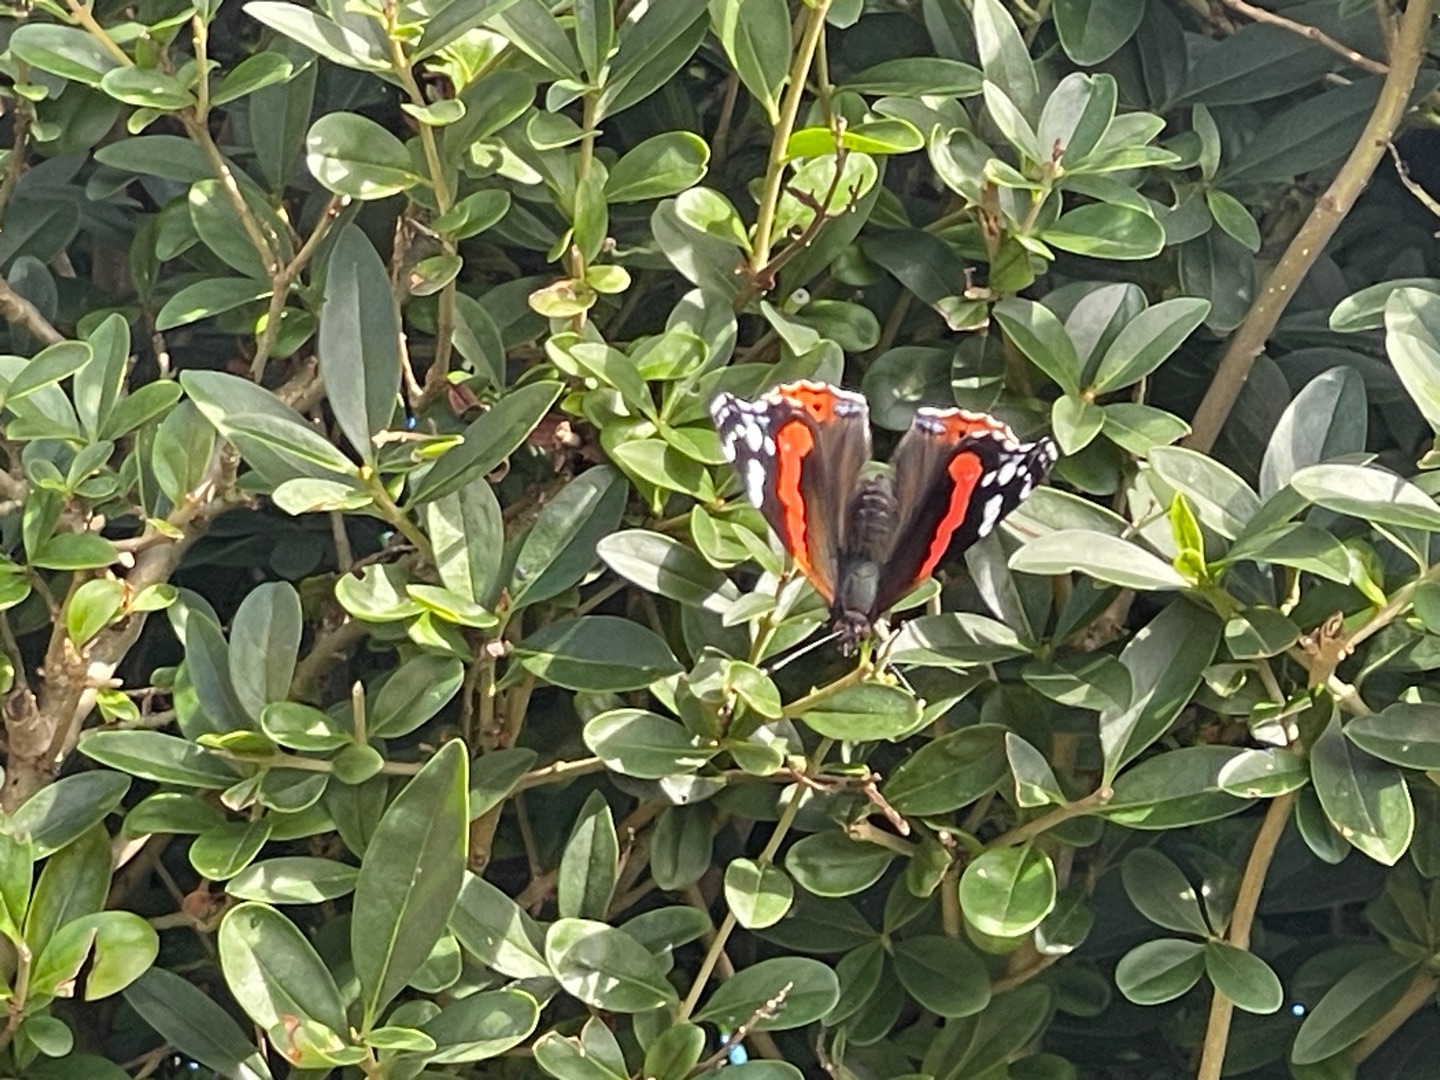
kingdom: Animalia
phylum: Arthropoda
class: Insecta
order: Lepidoptera
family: Nymphalidae
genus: Vanessa
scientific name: Vanessa atalanta
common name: Admiral
